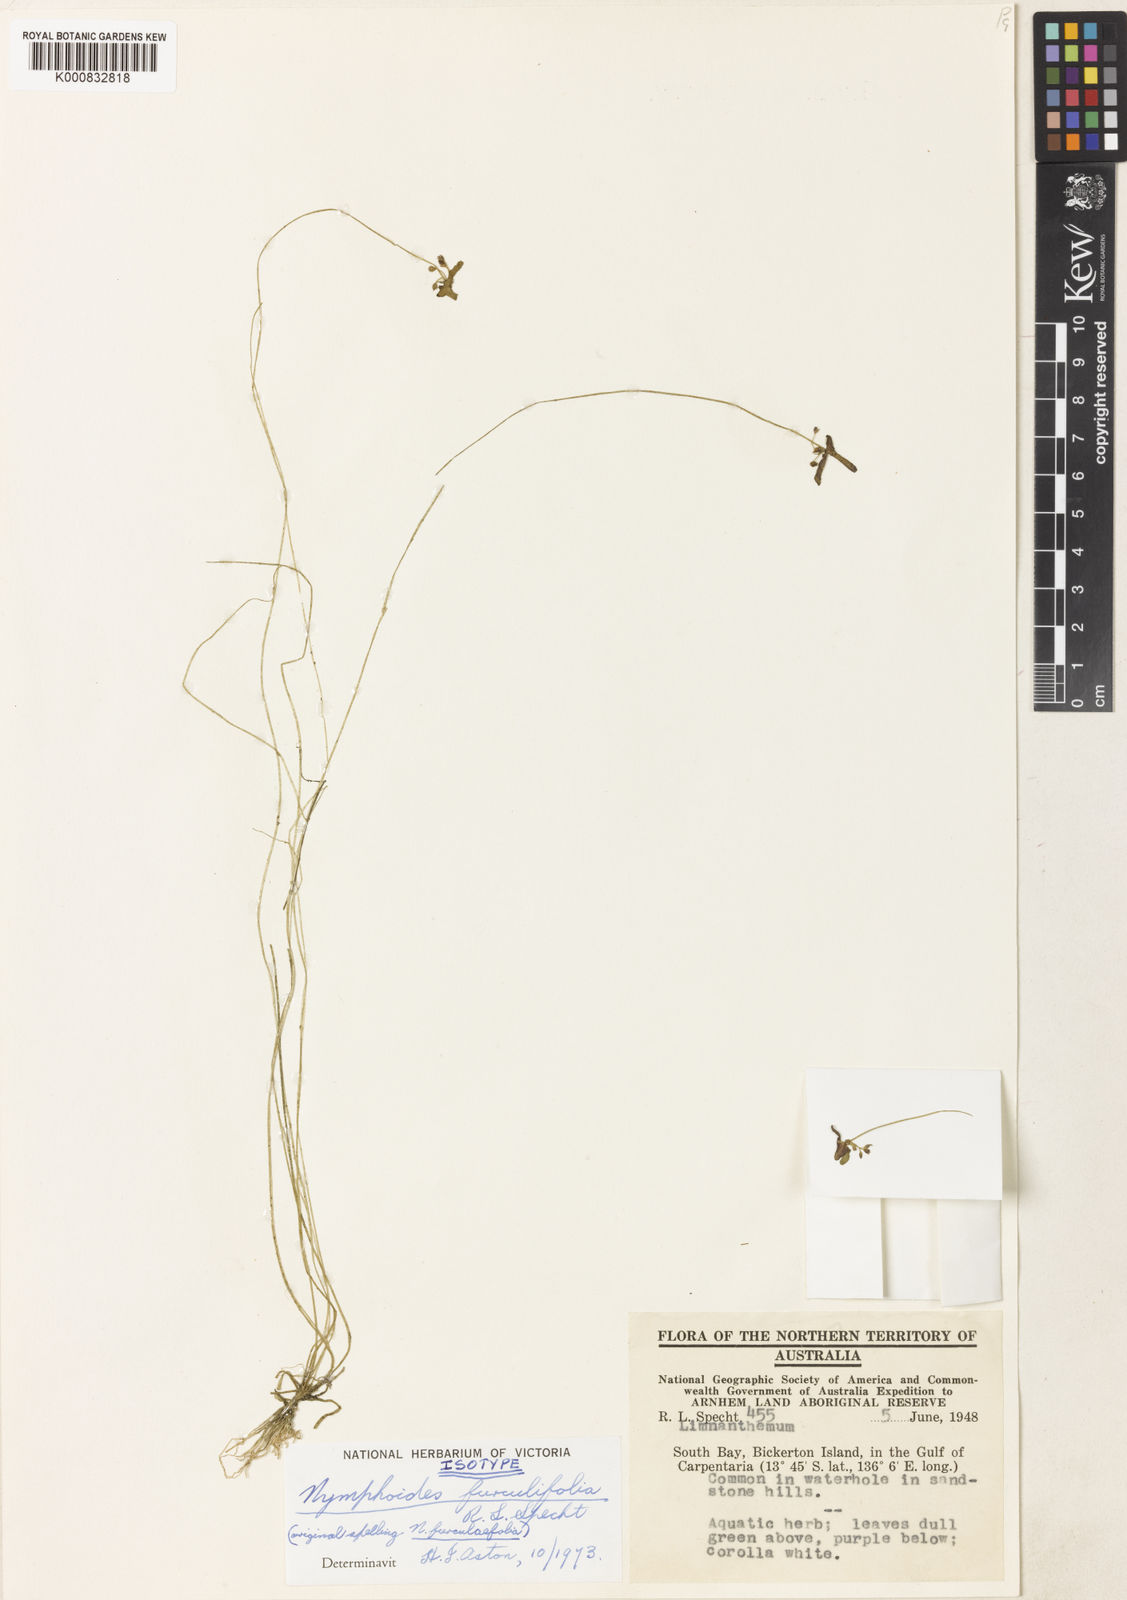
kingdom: Plantae
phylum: Tracheophyta
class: Magnoliopsida
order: Asterales
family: Menyanthaceae
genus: Nymphoides
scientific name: Nymphoides furculifolia
